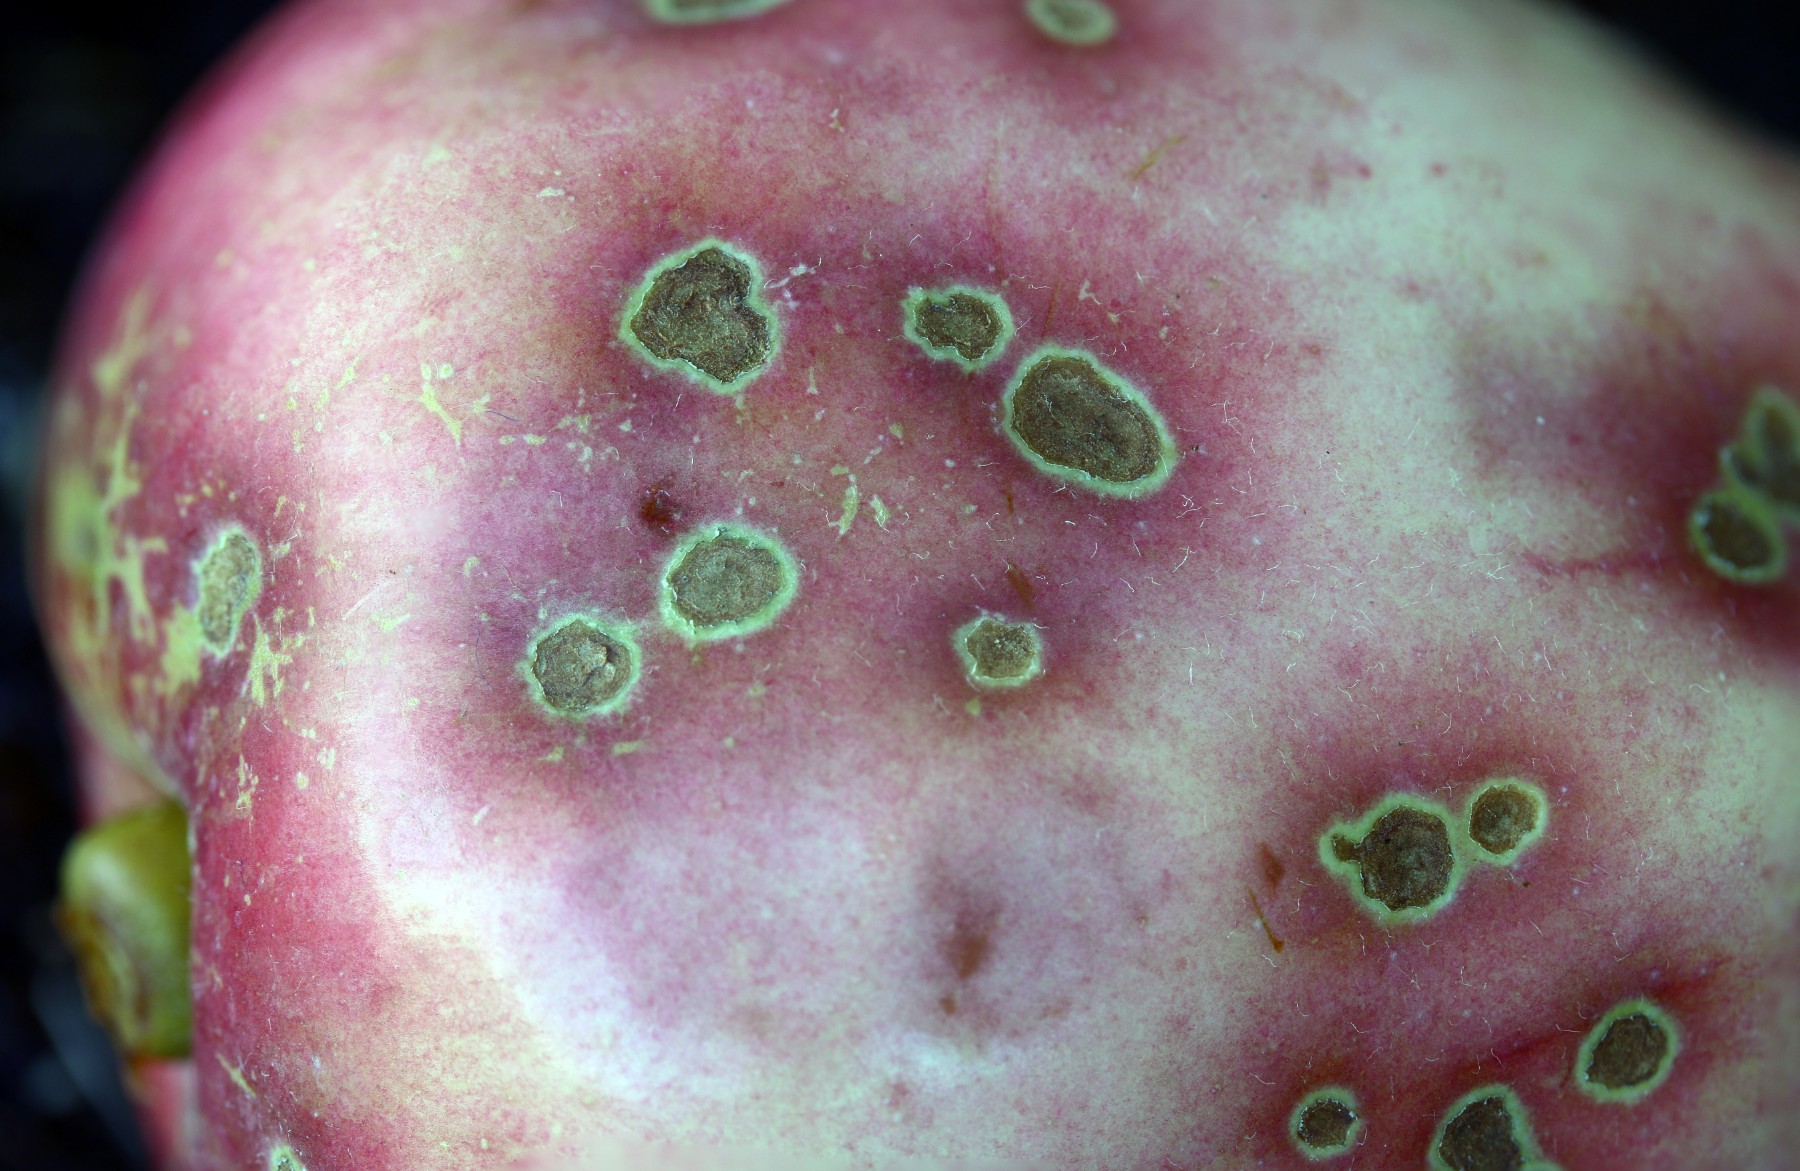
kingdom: Fungi
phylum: Ascomycota
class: Dothideomycetes
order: Venturiales
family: Venturiaceae
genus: Venturia
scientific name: Venturia inaequalis
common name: Apple scab
